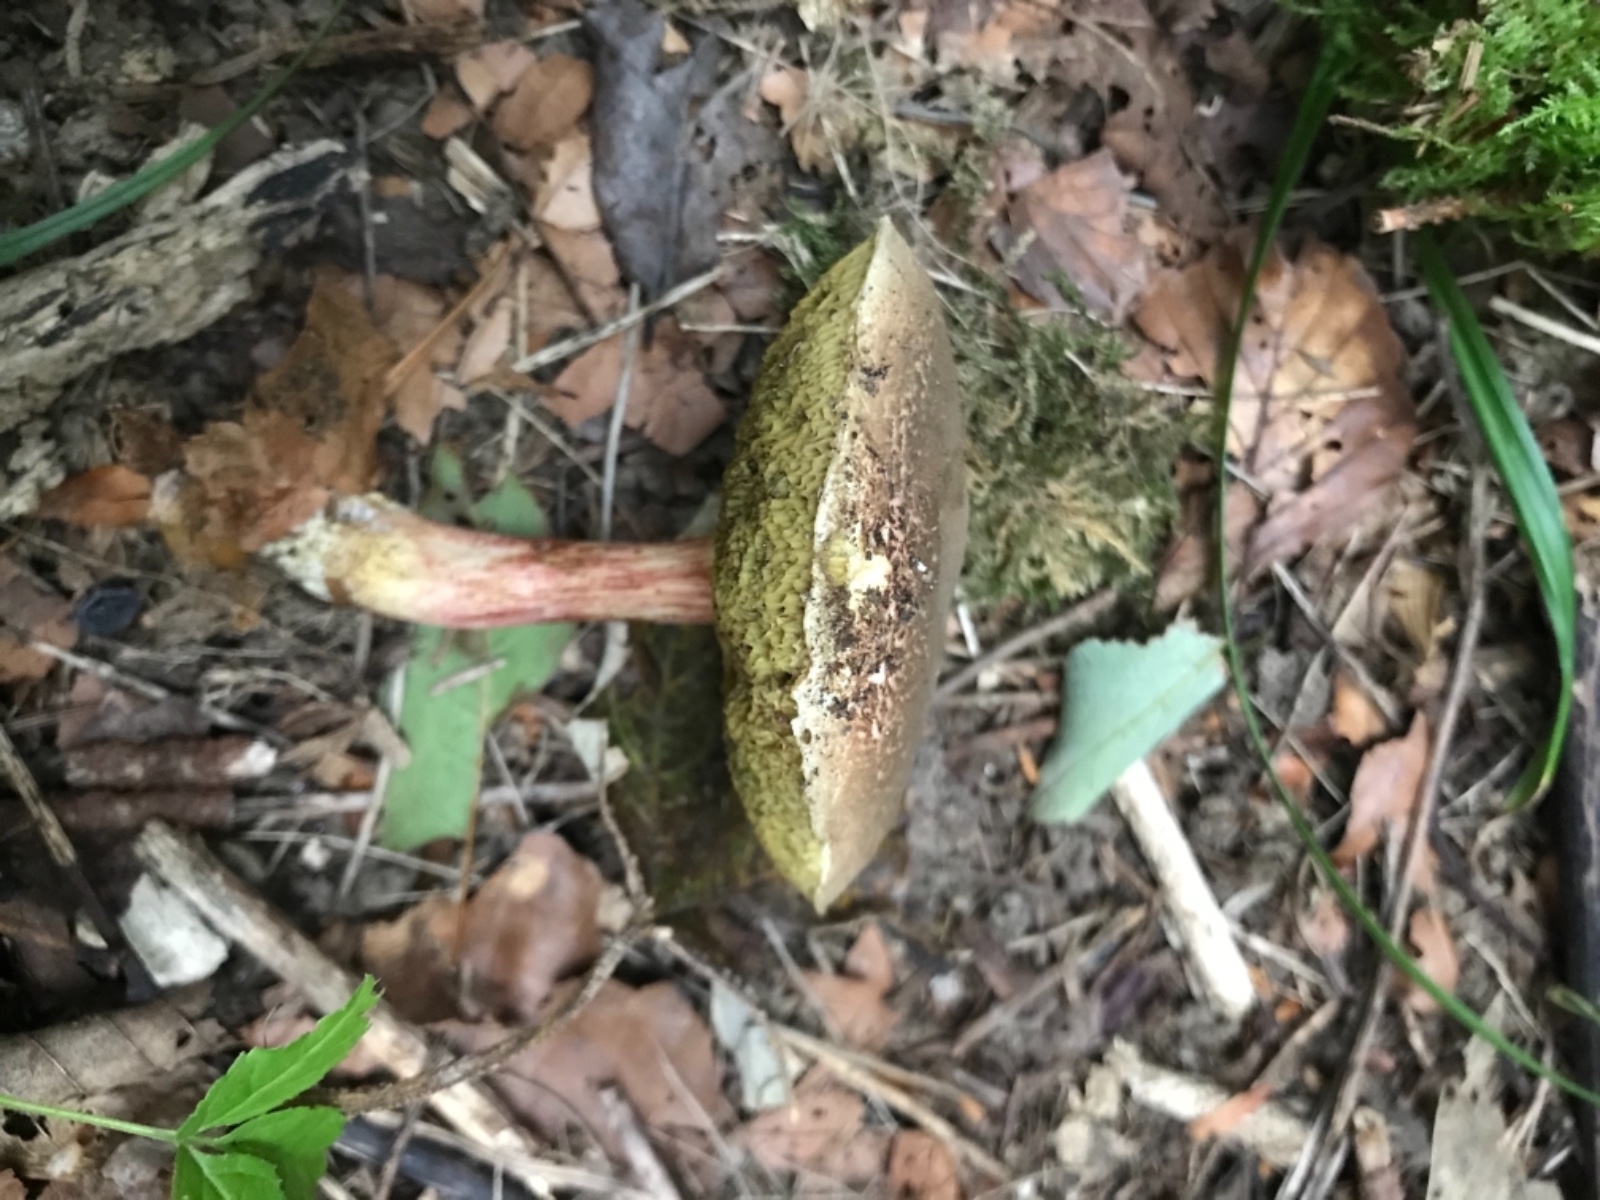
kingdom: Fungi
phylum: Basidiomycota
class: Agaricomycetes
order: Boletales
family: Boletaceae
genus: Xerocomellus
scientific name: Xerocomellus
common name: dværgrørhat
